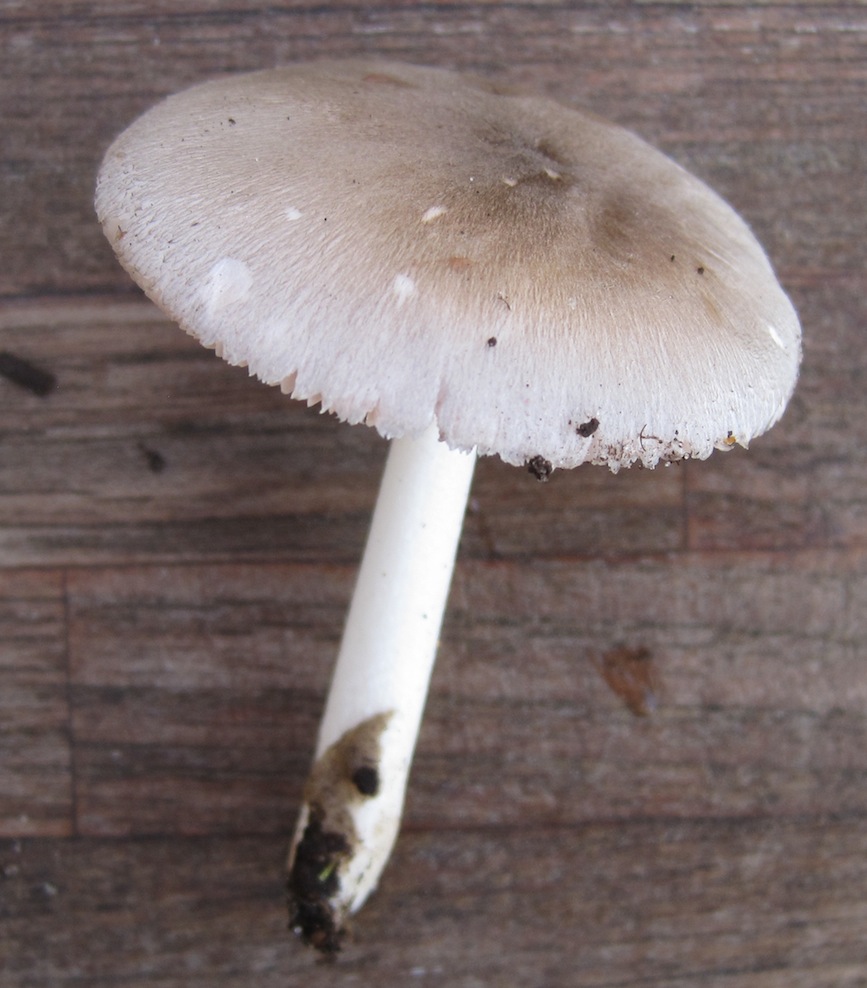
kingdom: Fungi
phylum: Basidiomycota
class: Agaricomycetes
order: Agaricales
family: Pluteaceae
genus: Pluteus
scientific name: Pluteus salicinus
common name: stiv skærmhat
